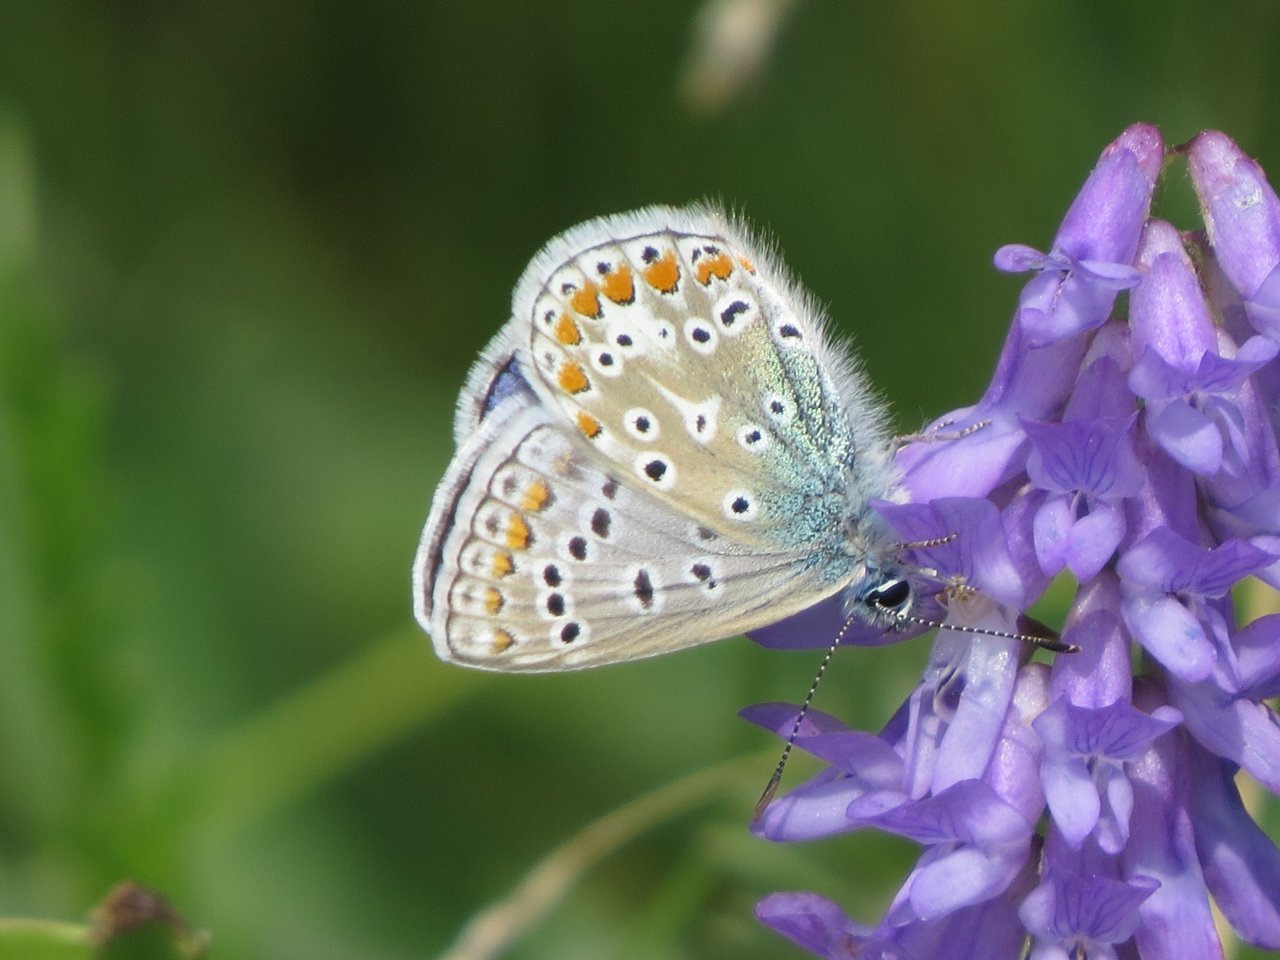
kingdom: Animalia
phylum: Arthropoda
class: Insecta
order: Lepidoptera
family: Lycaenidae
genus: Polyommatus
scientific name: Polyommatus icarus
